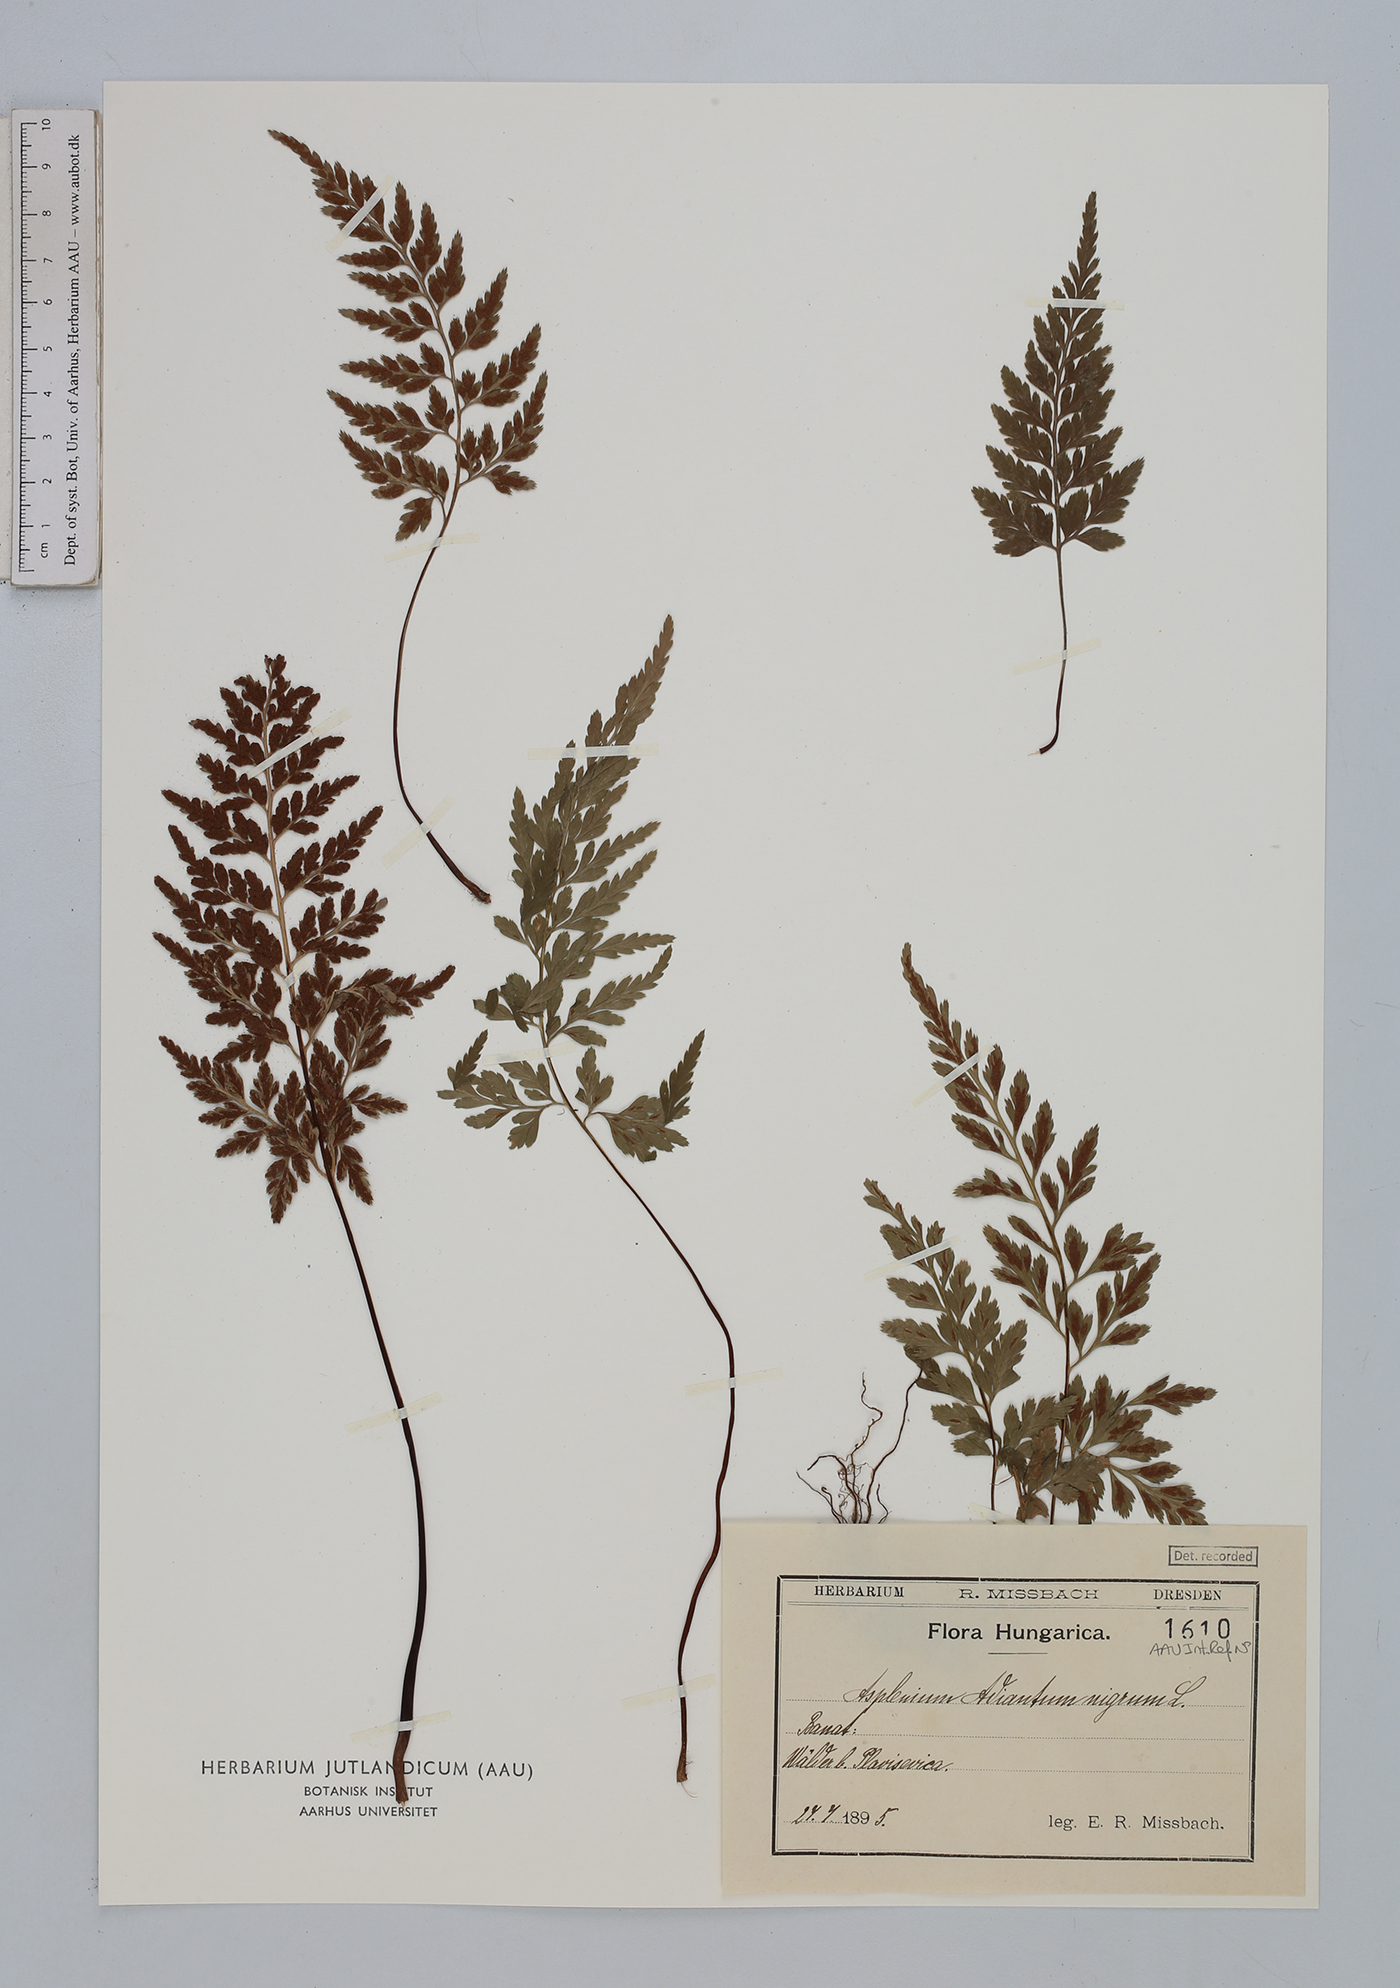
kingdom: Plantae
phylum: Tracheophyta
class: Polypodiopsida
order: Polypodiales
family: Aspleniaceae
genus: Asplenium
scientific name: Asplenium adiantum-nigrum
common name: Black spleenwort
